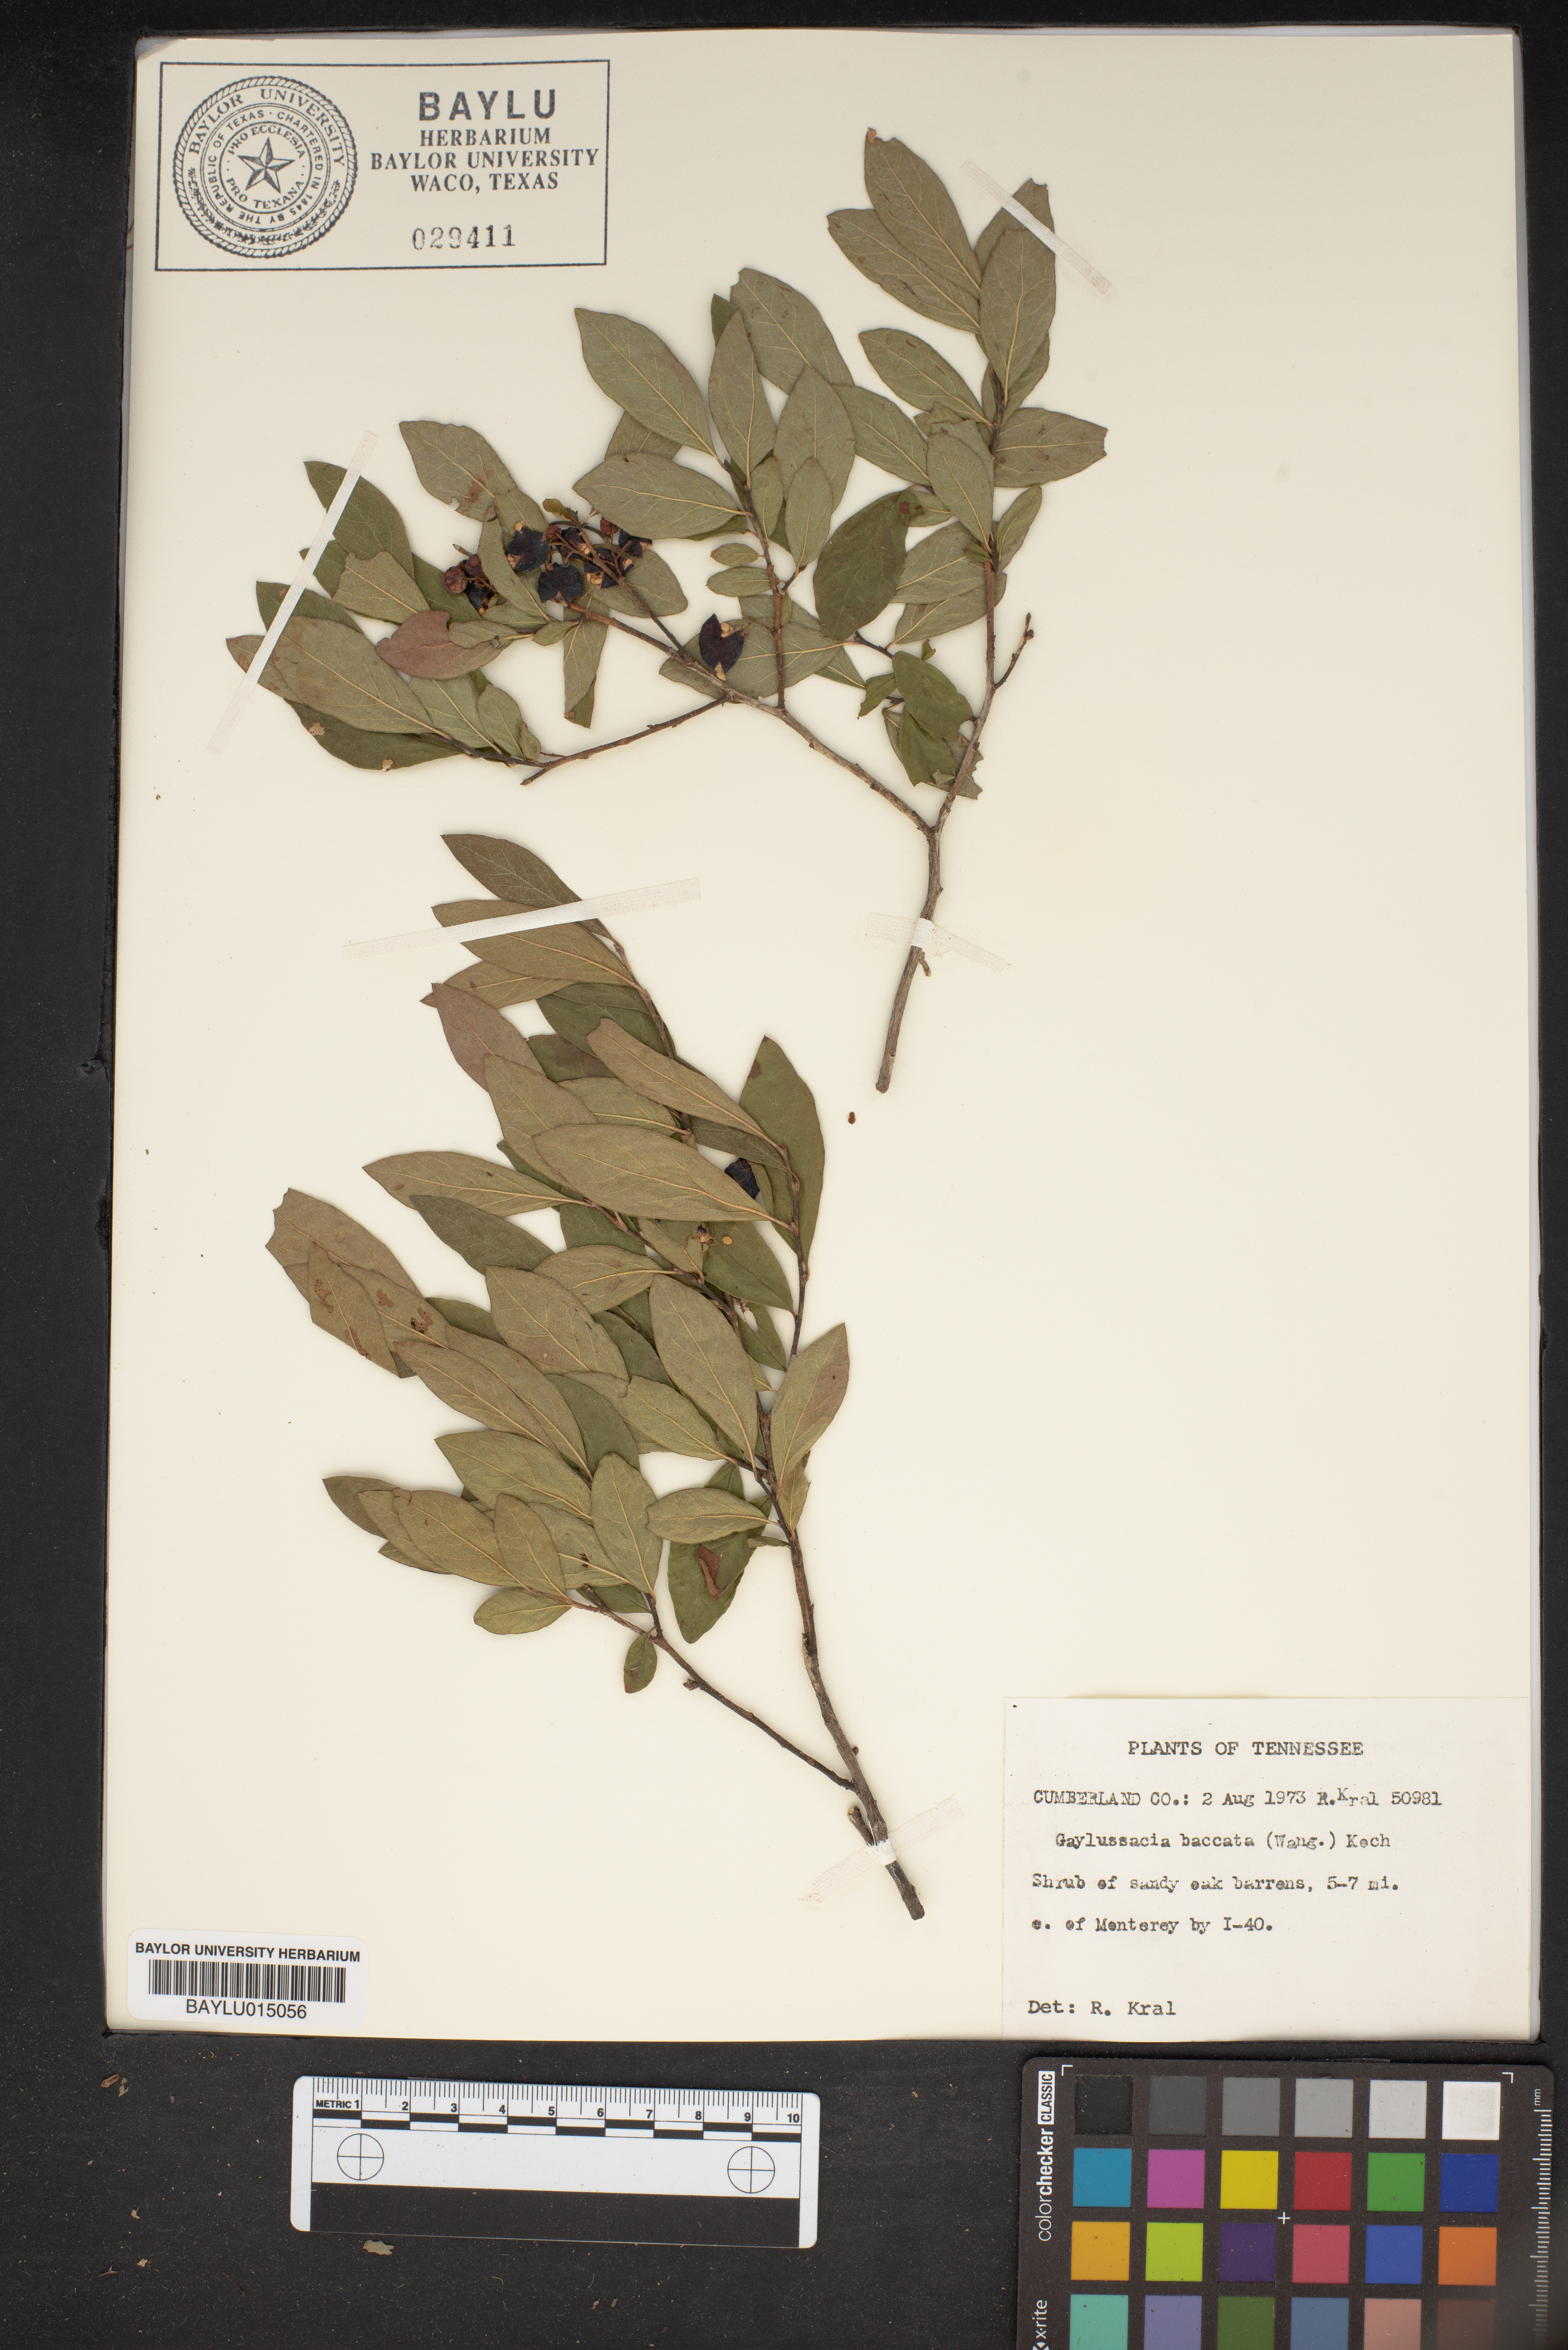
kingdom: Plantae
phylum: Tracheophyta
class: Magnoliopsida
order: Ericales
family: Ericaceae
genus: Gaylussacia
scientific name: Gaylussacia baccata
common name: Black huckleberry
